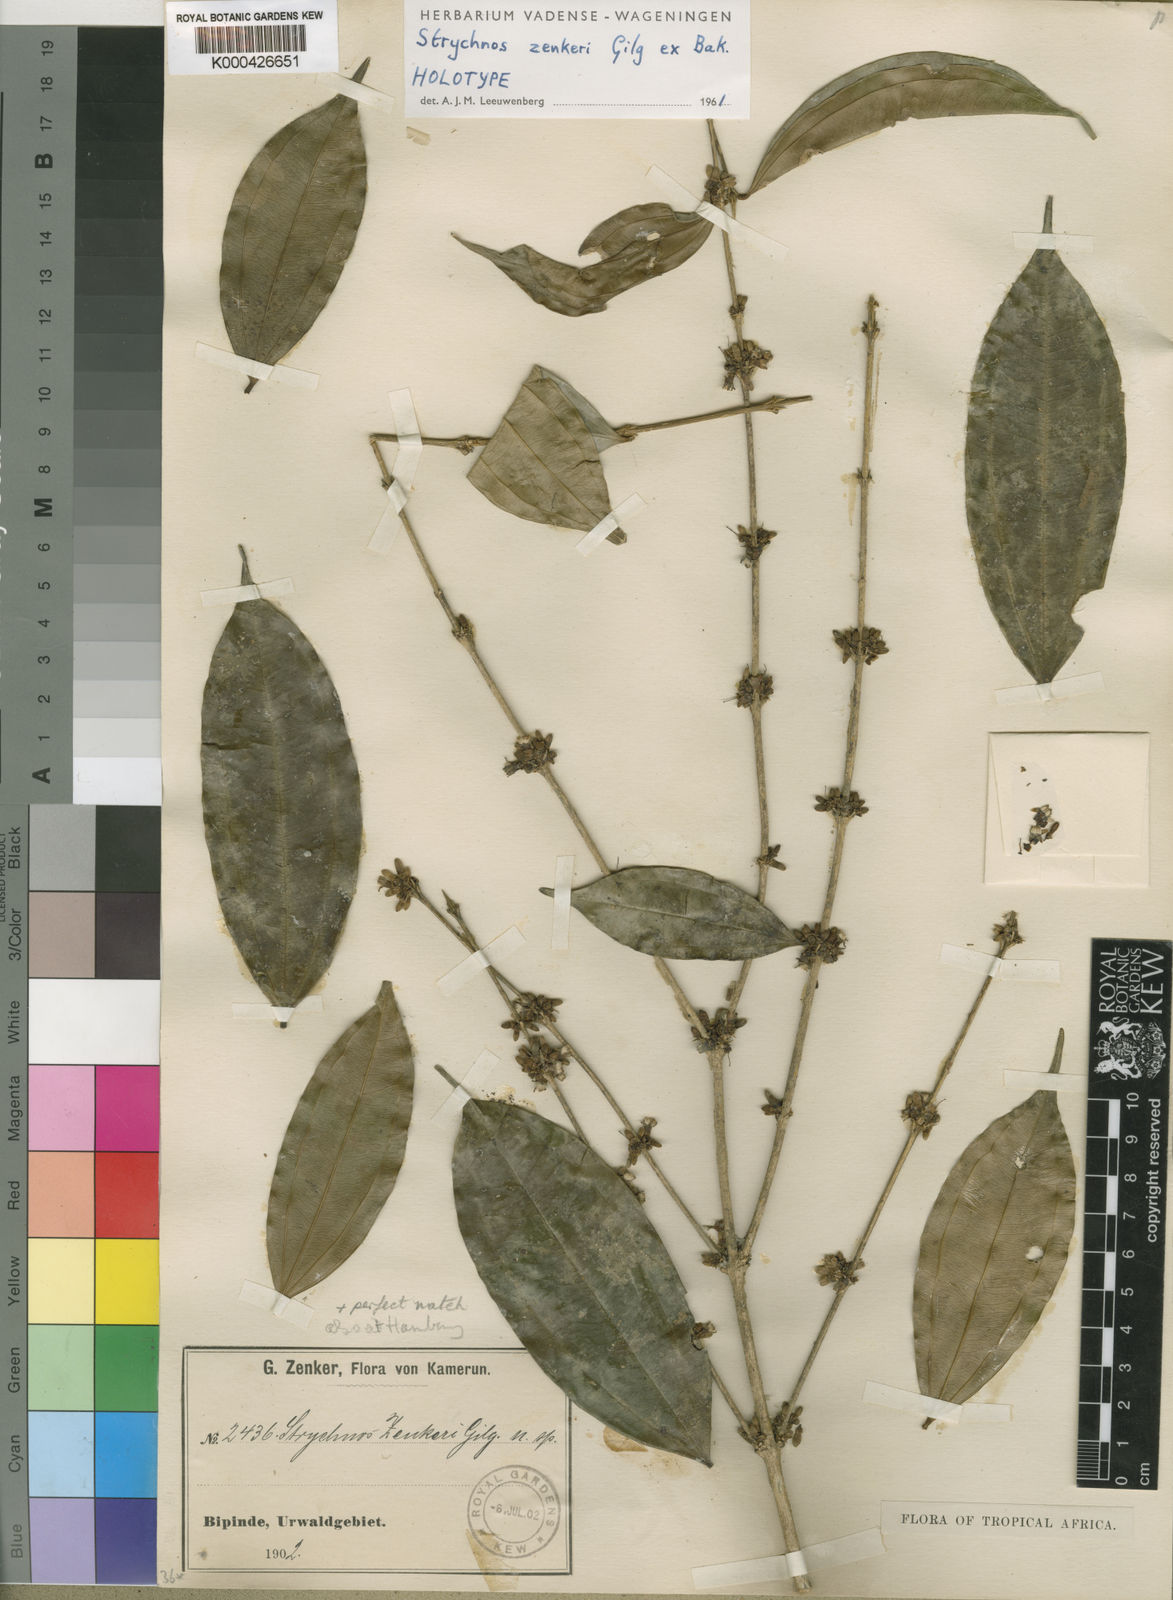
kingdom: Plantae
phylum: Tracheophyta
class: Magnoliopsida
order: Gentianales
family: Loganiaceae
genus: Strychnos
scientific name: Strychnos zenkeri
